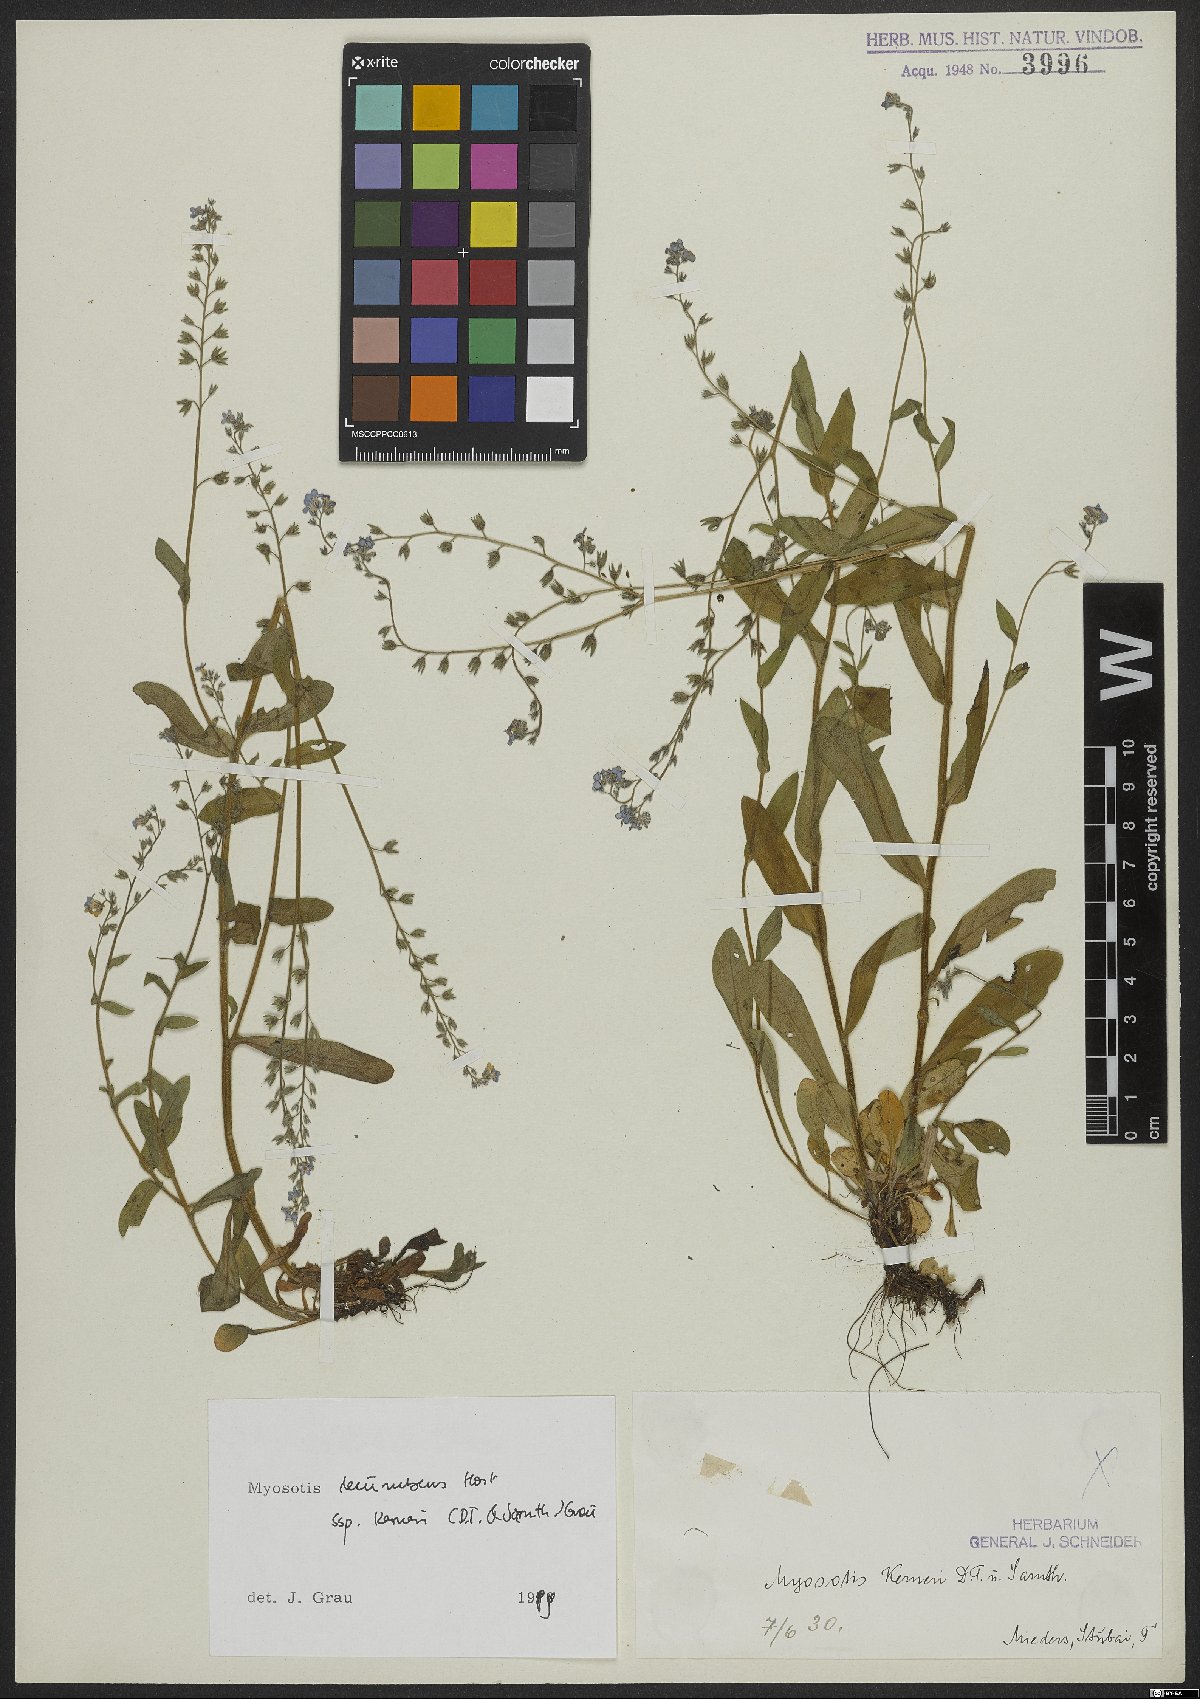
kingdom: Plantae
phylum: Tracheophyta
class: Magnoliopsida
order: Boraginales
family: Boraginaceae
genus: Myosotis
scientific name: Myosotis decumbens
